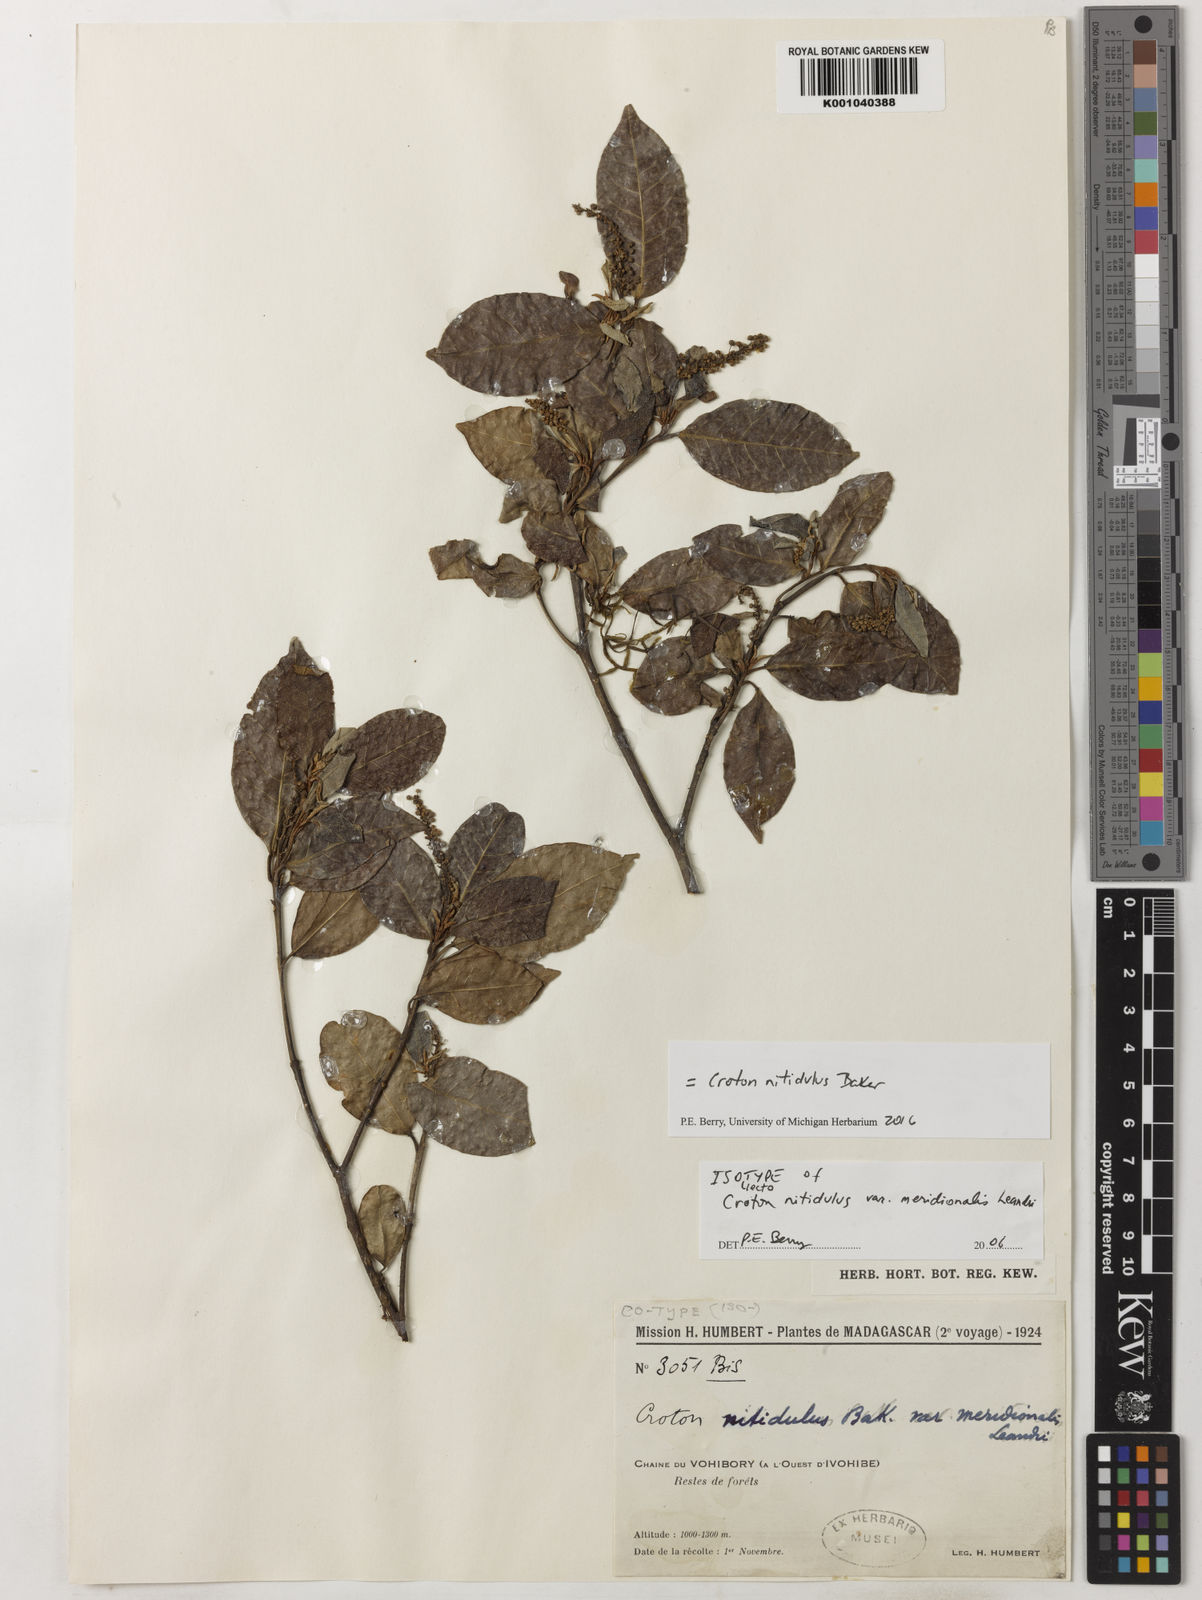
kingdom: Plantae
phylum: Tracheophyta
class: Magnoliopsida
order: Malpighiales
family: Euphorbiaceae
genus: Croton
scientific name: Croton nitidulus
